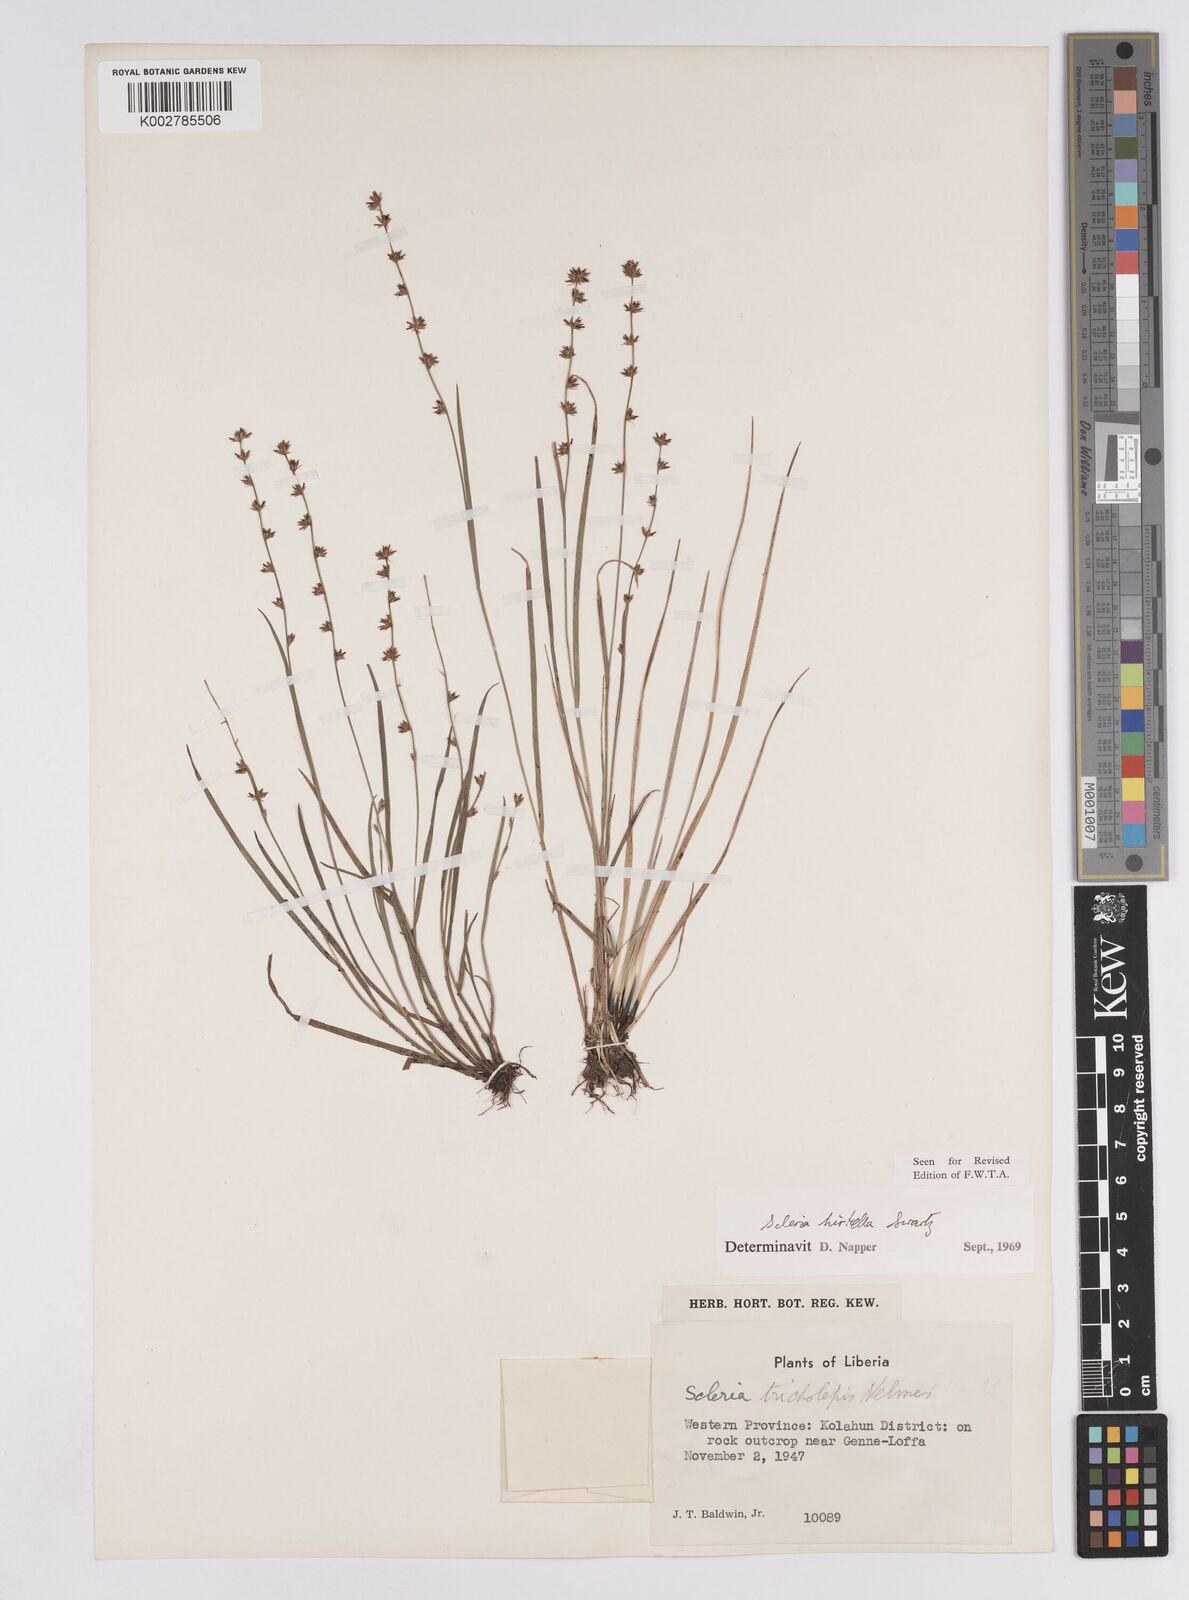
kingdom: Plantae
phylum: Tracheophyta
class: Liliopsida
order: Poales
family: Cyperaceae
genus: Scleria
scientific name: Scleria tricholepis
